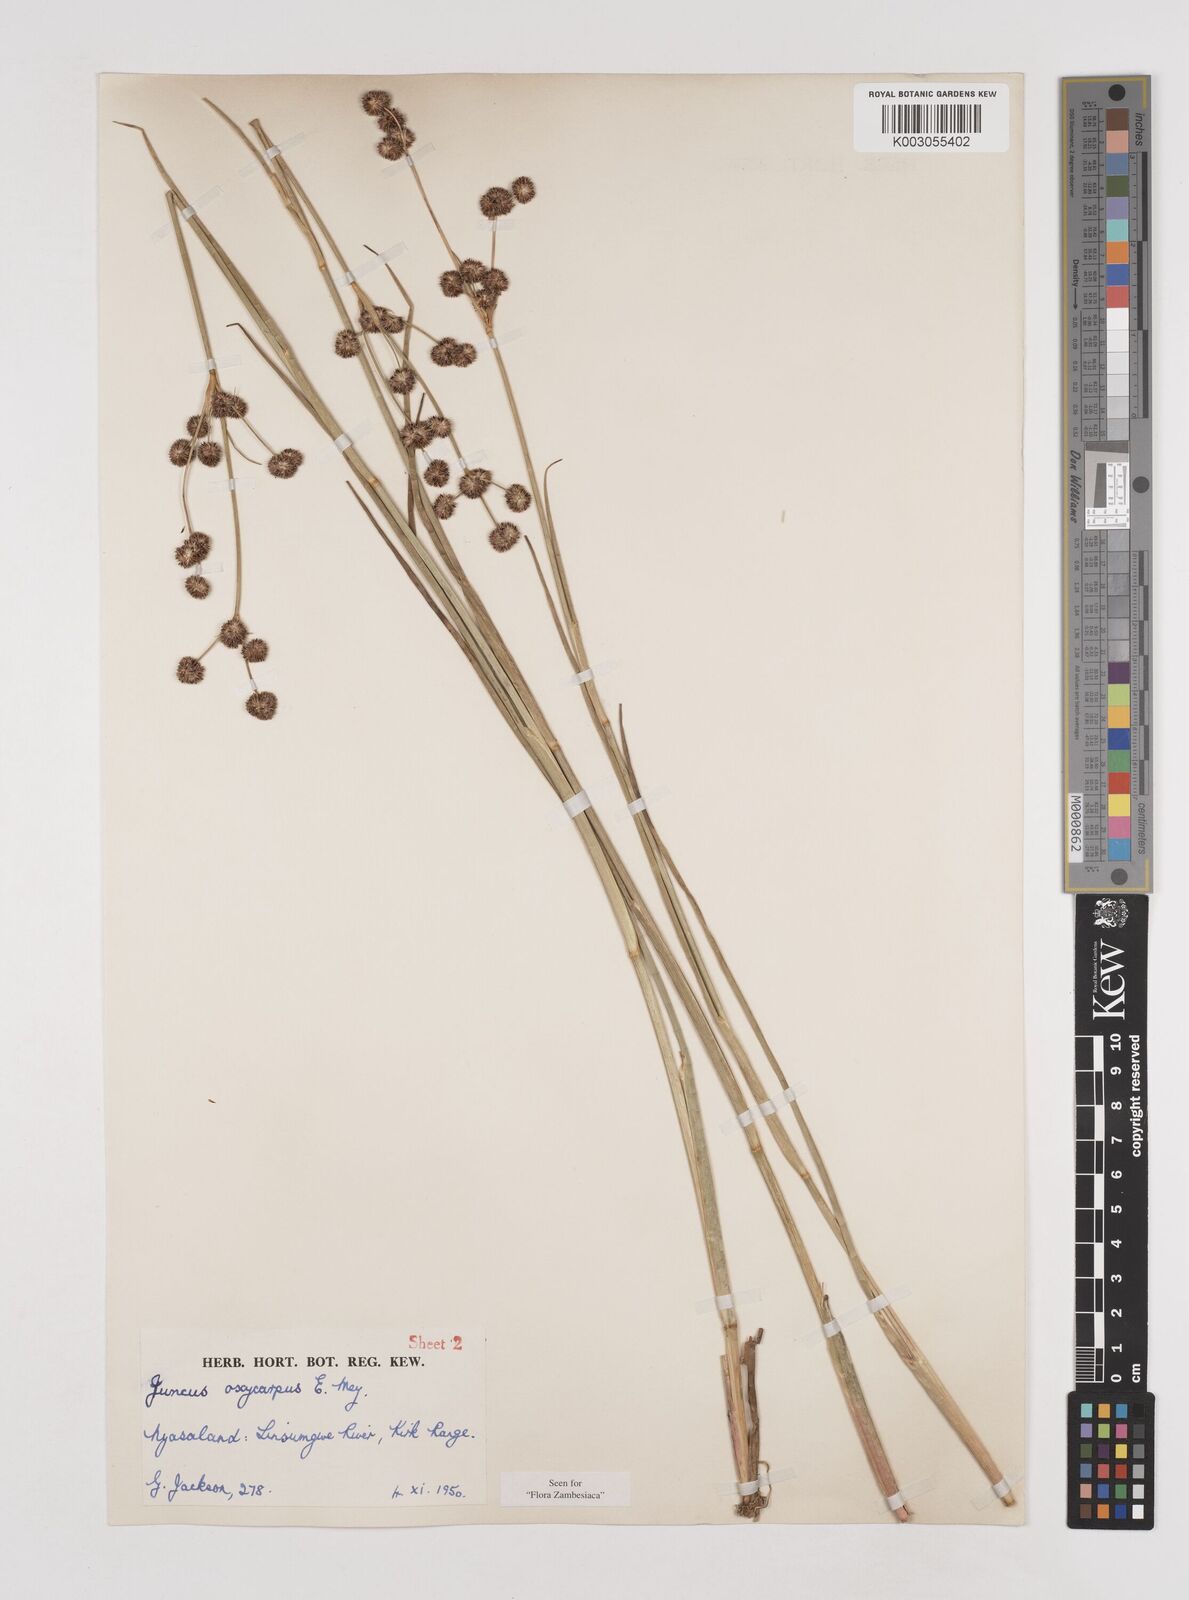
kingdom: Plantae
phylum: Tracheophyta
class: Liliopsida
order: Poales
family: Juncaceae
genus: Juncus
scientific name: Juncus oxycarpus
